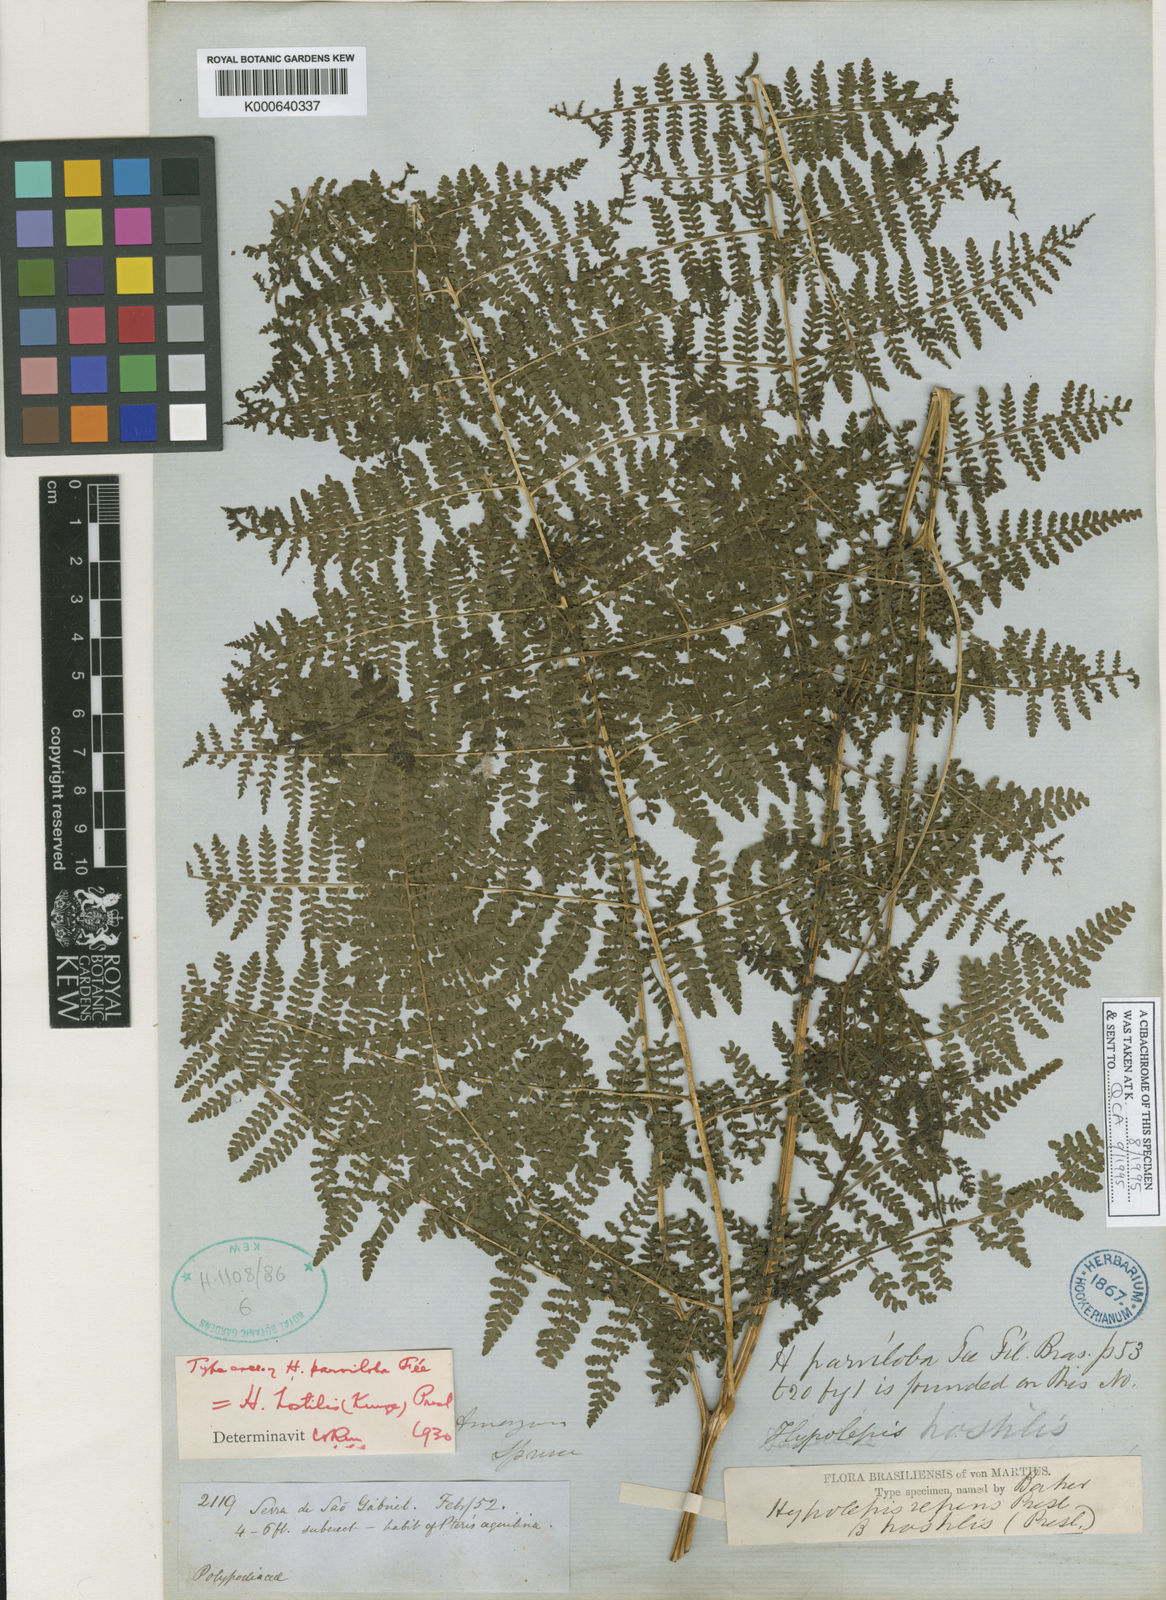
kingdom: Plantae
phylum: Tracheophyta
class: Polypodiopsida
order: Polypodiales
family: Dennstaedtiaceae
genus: Hypolepis
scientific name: Hypolepis hostilis
